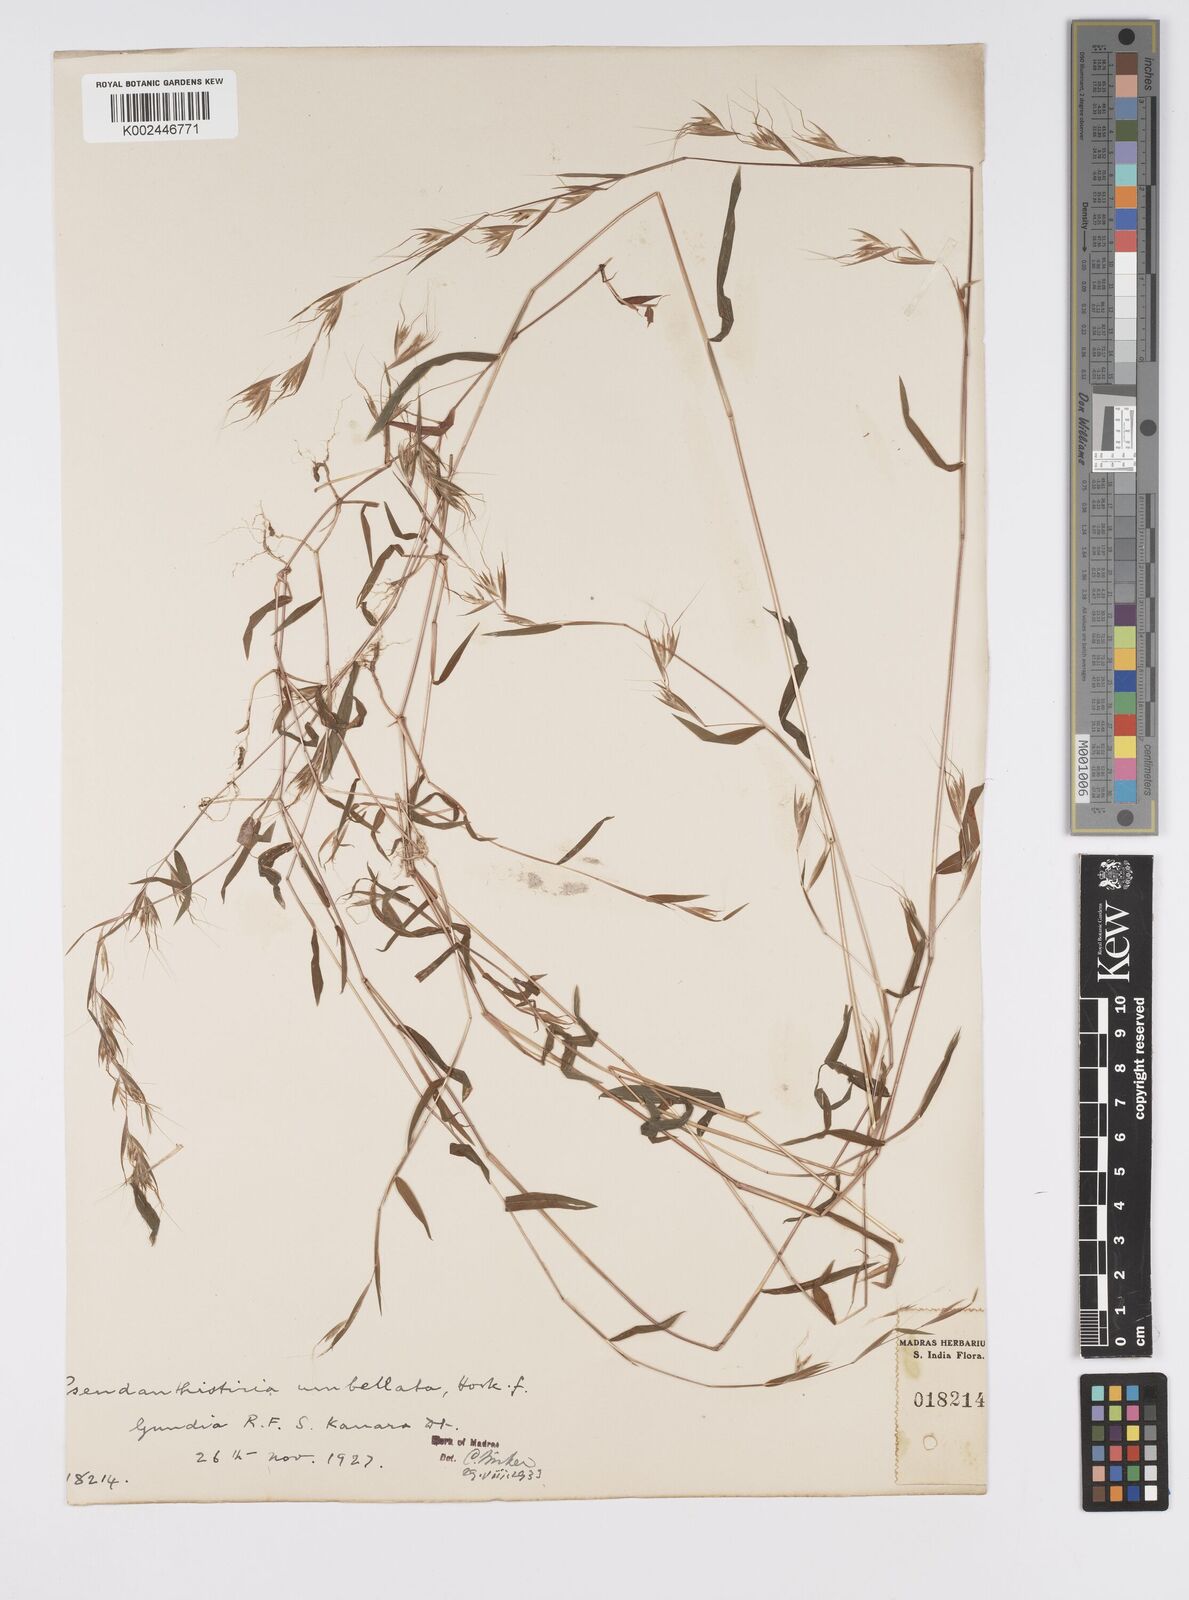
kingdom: Plantae
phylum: Tracheophyta
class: Liliopsida
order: Poales
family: Poaceae
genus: Pseudanthistiria
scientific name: Pseudanthistiria umbellata
